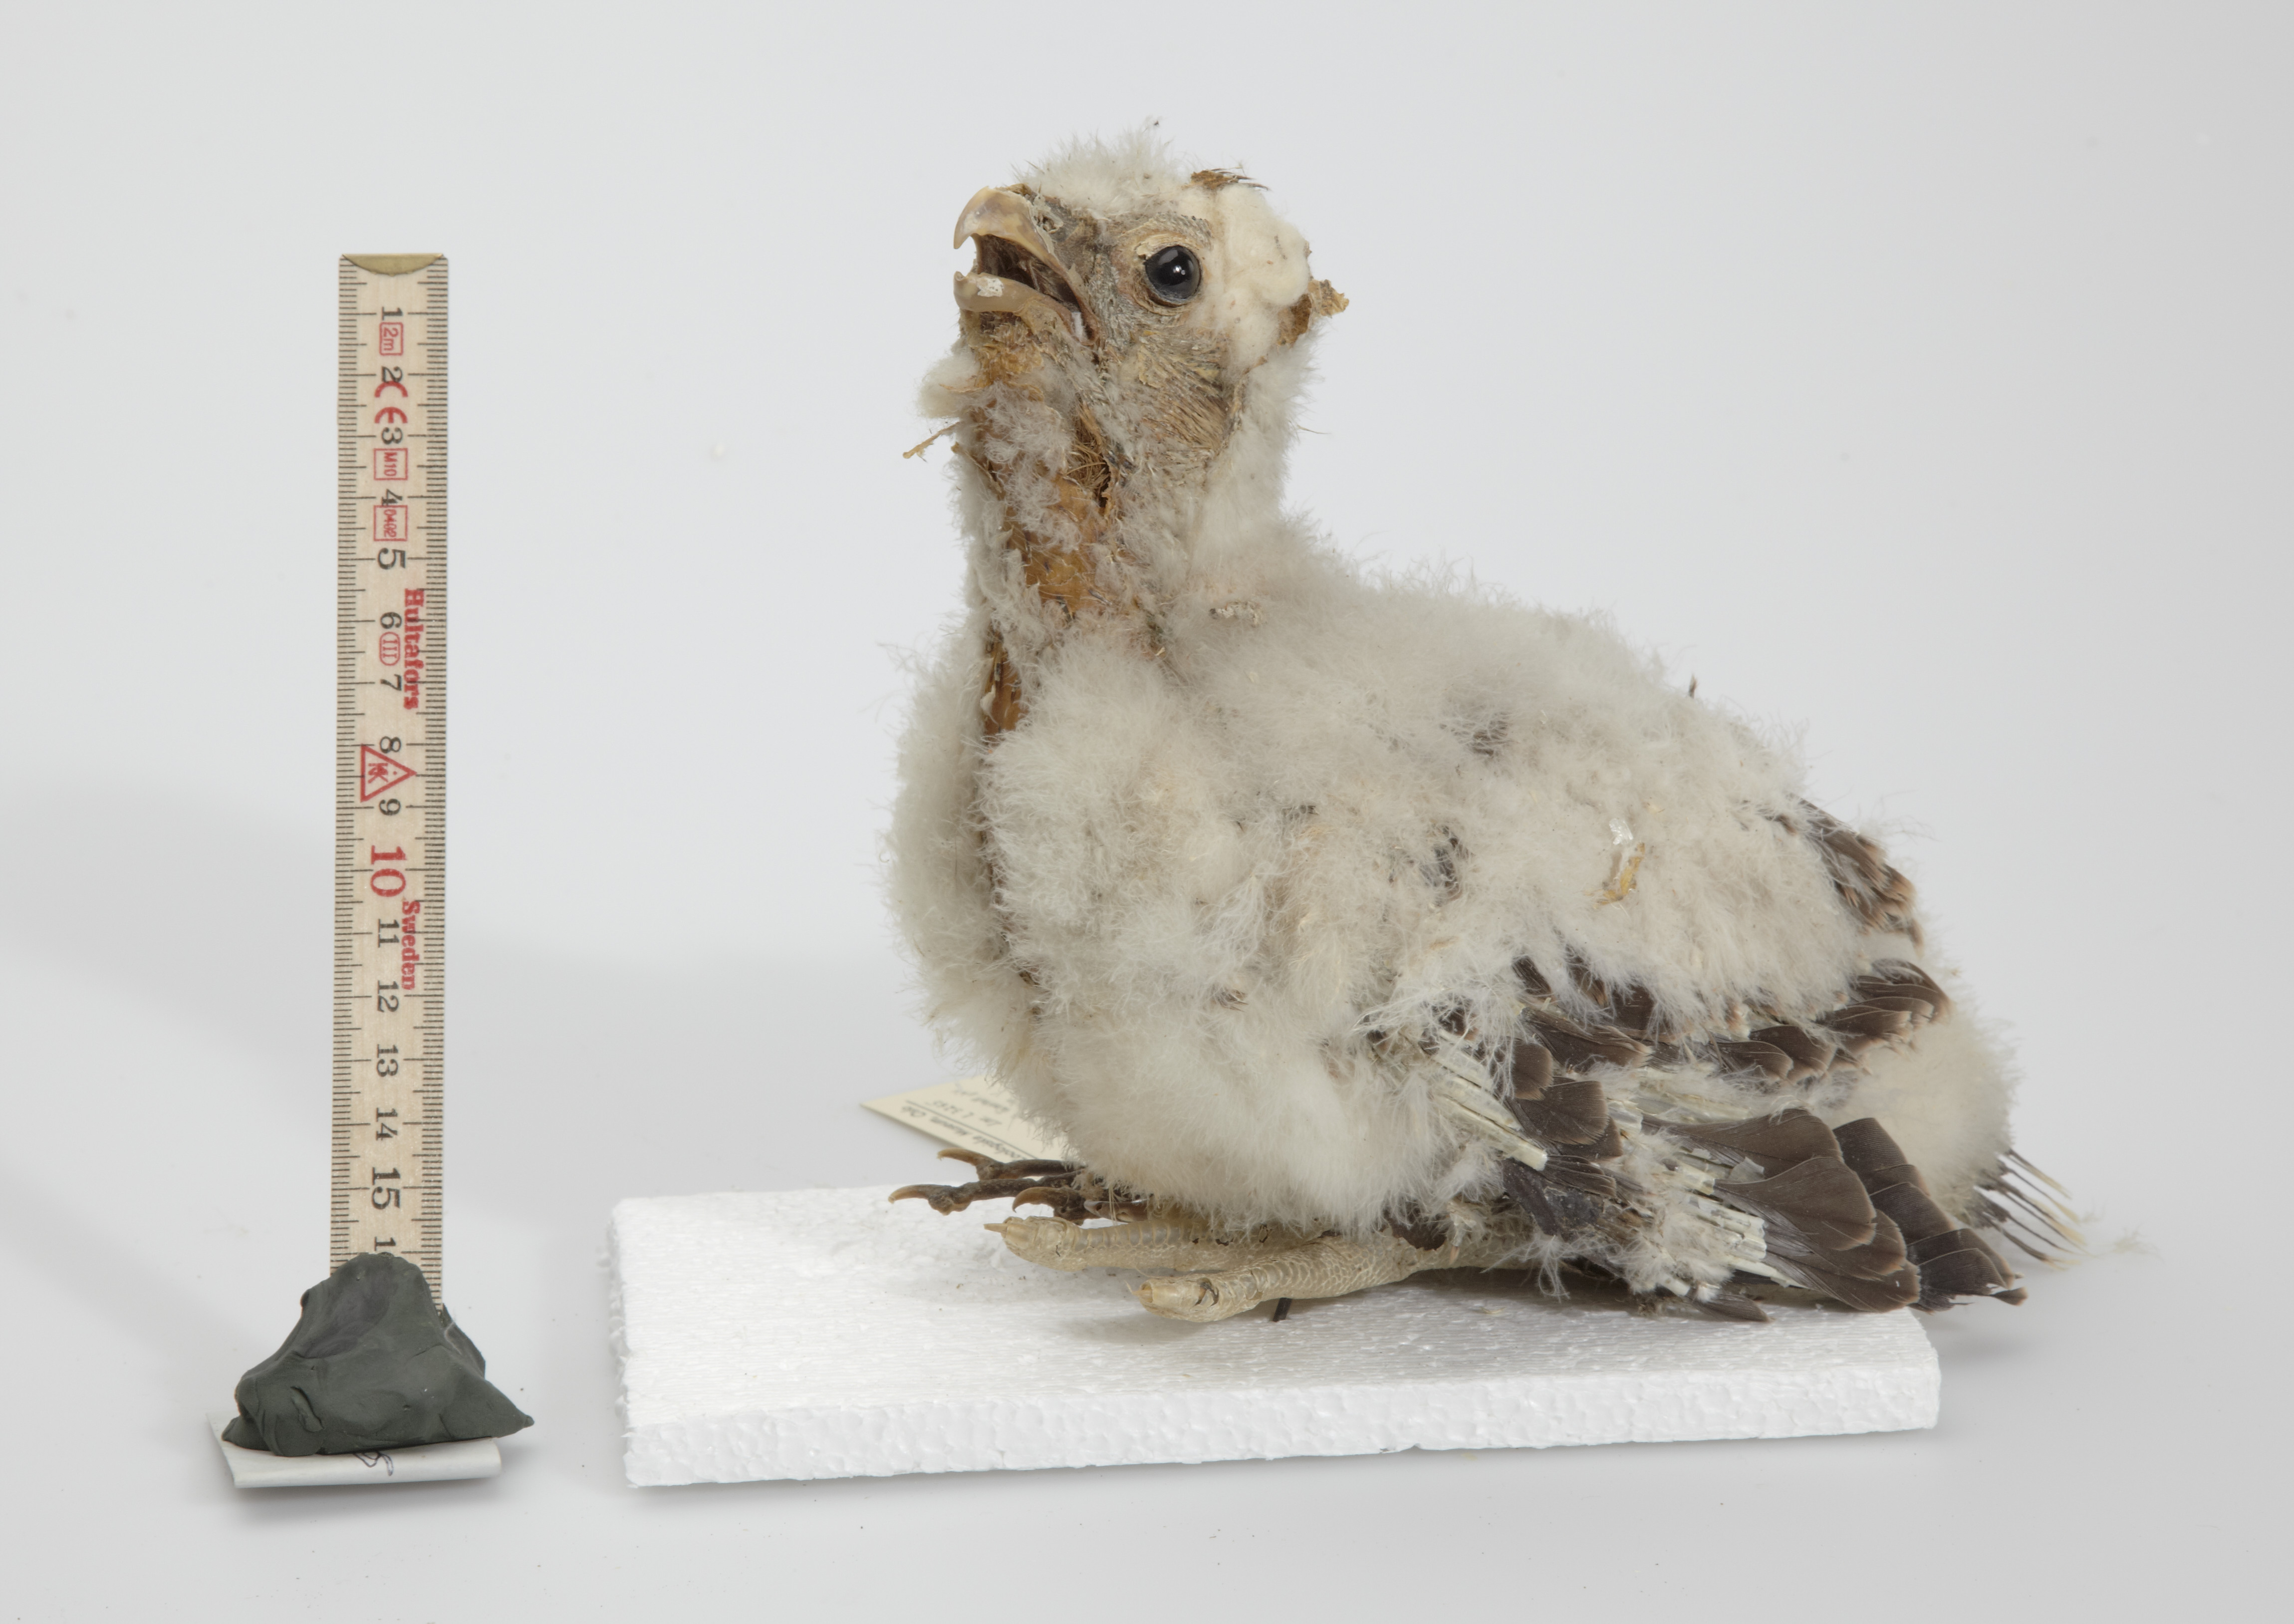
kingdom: Animalia
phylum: Chordata
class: Aves
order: Falconiformes
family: Falconidae
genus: Falco
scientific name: Falco peregrinus
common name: Peregrine falcon
